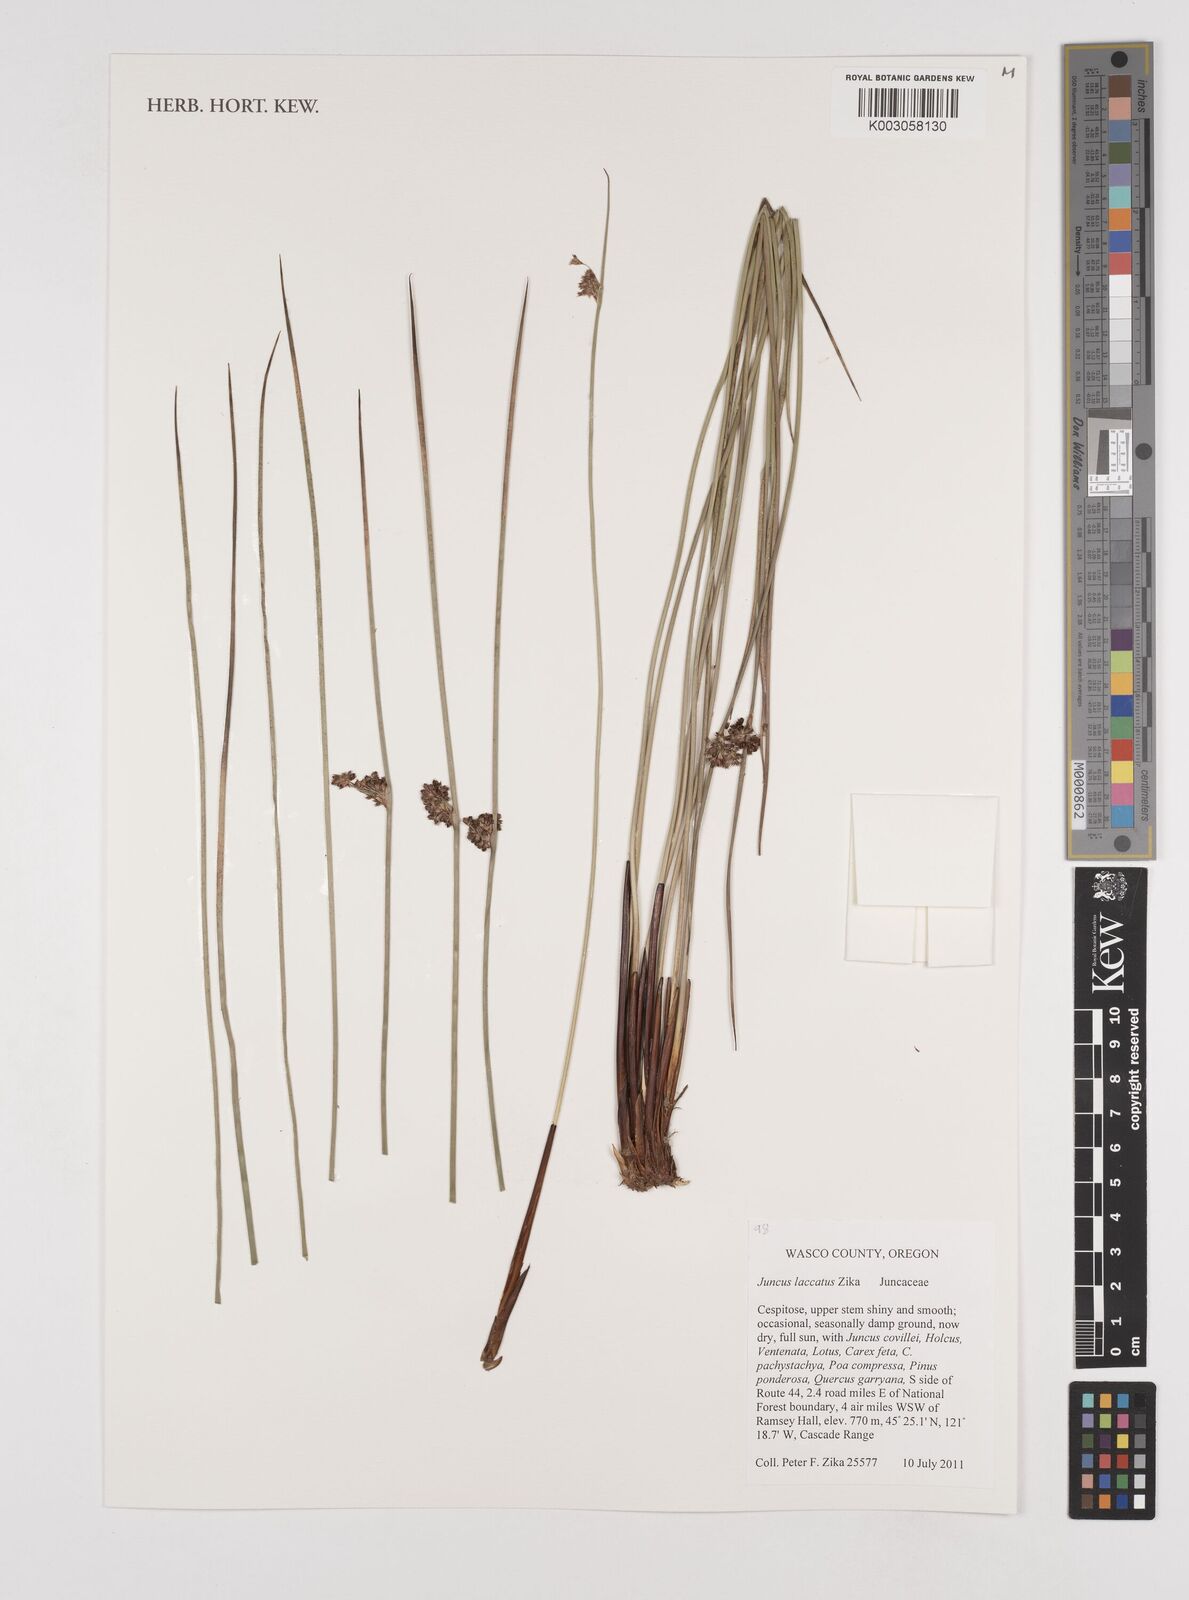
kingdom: Plantae
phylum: Tracheophyta
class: Liliopsida
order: Poales
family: Juncaceae
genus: Juncus
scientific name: Juncus laccatus
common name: Shiny rush
